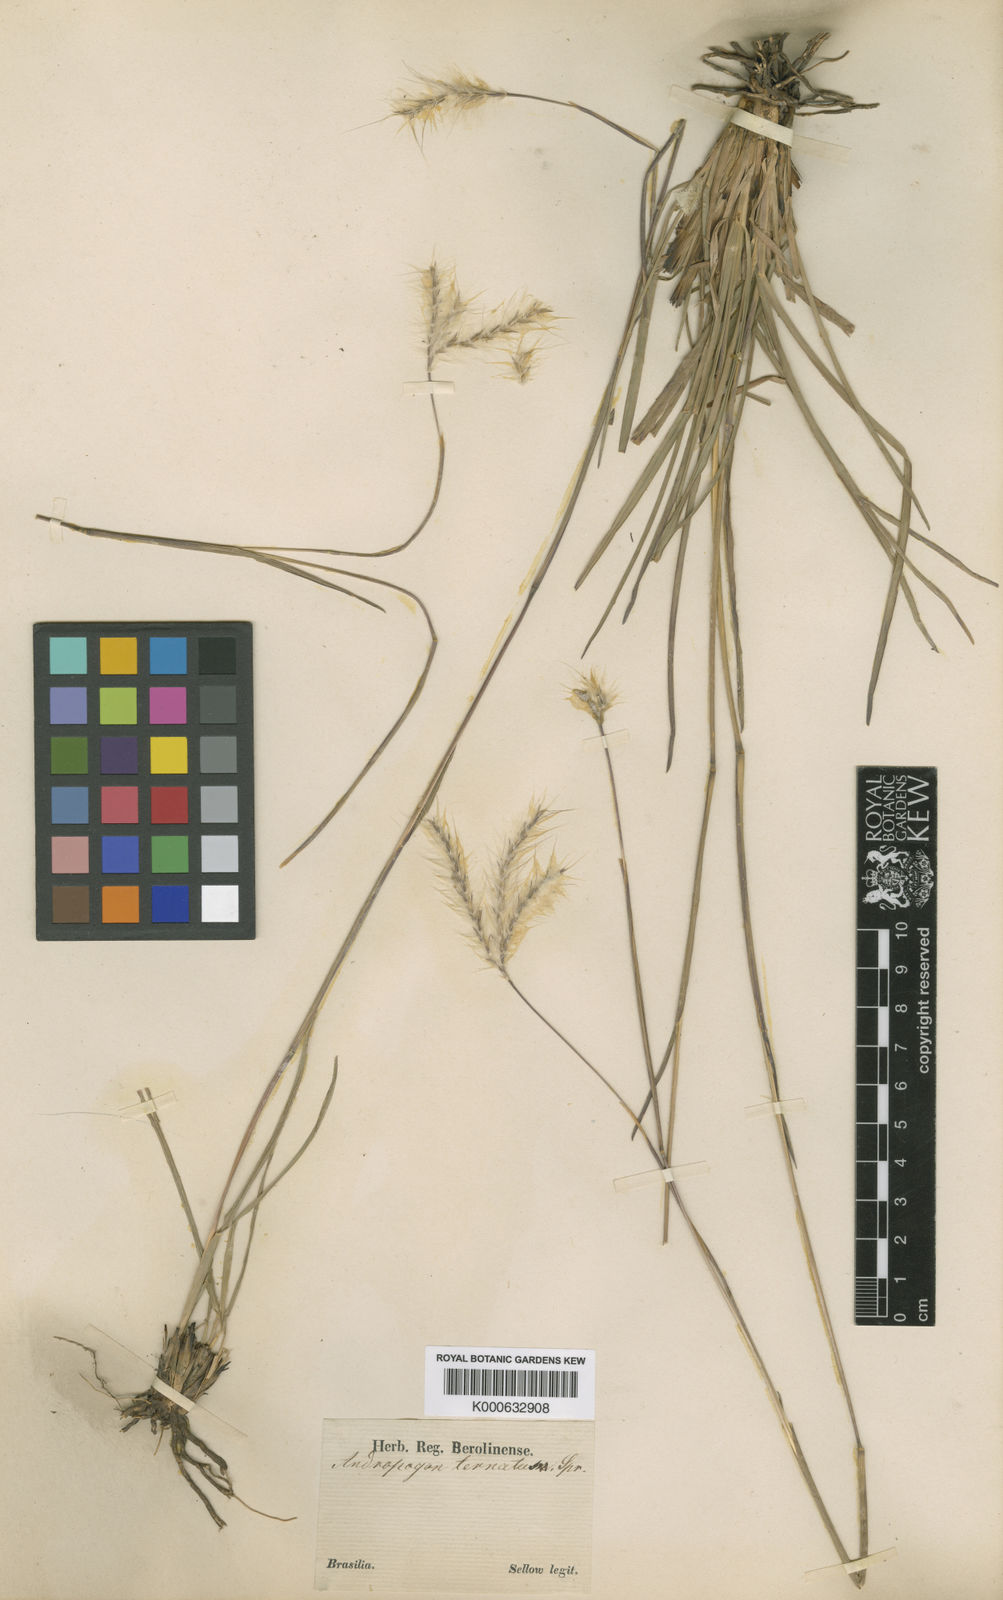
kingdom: Plantae
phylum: Tracheophyta
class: Liliopsida
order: Poales
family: Poaceae
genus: Andropogon
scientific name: Andropogon macrothrix
